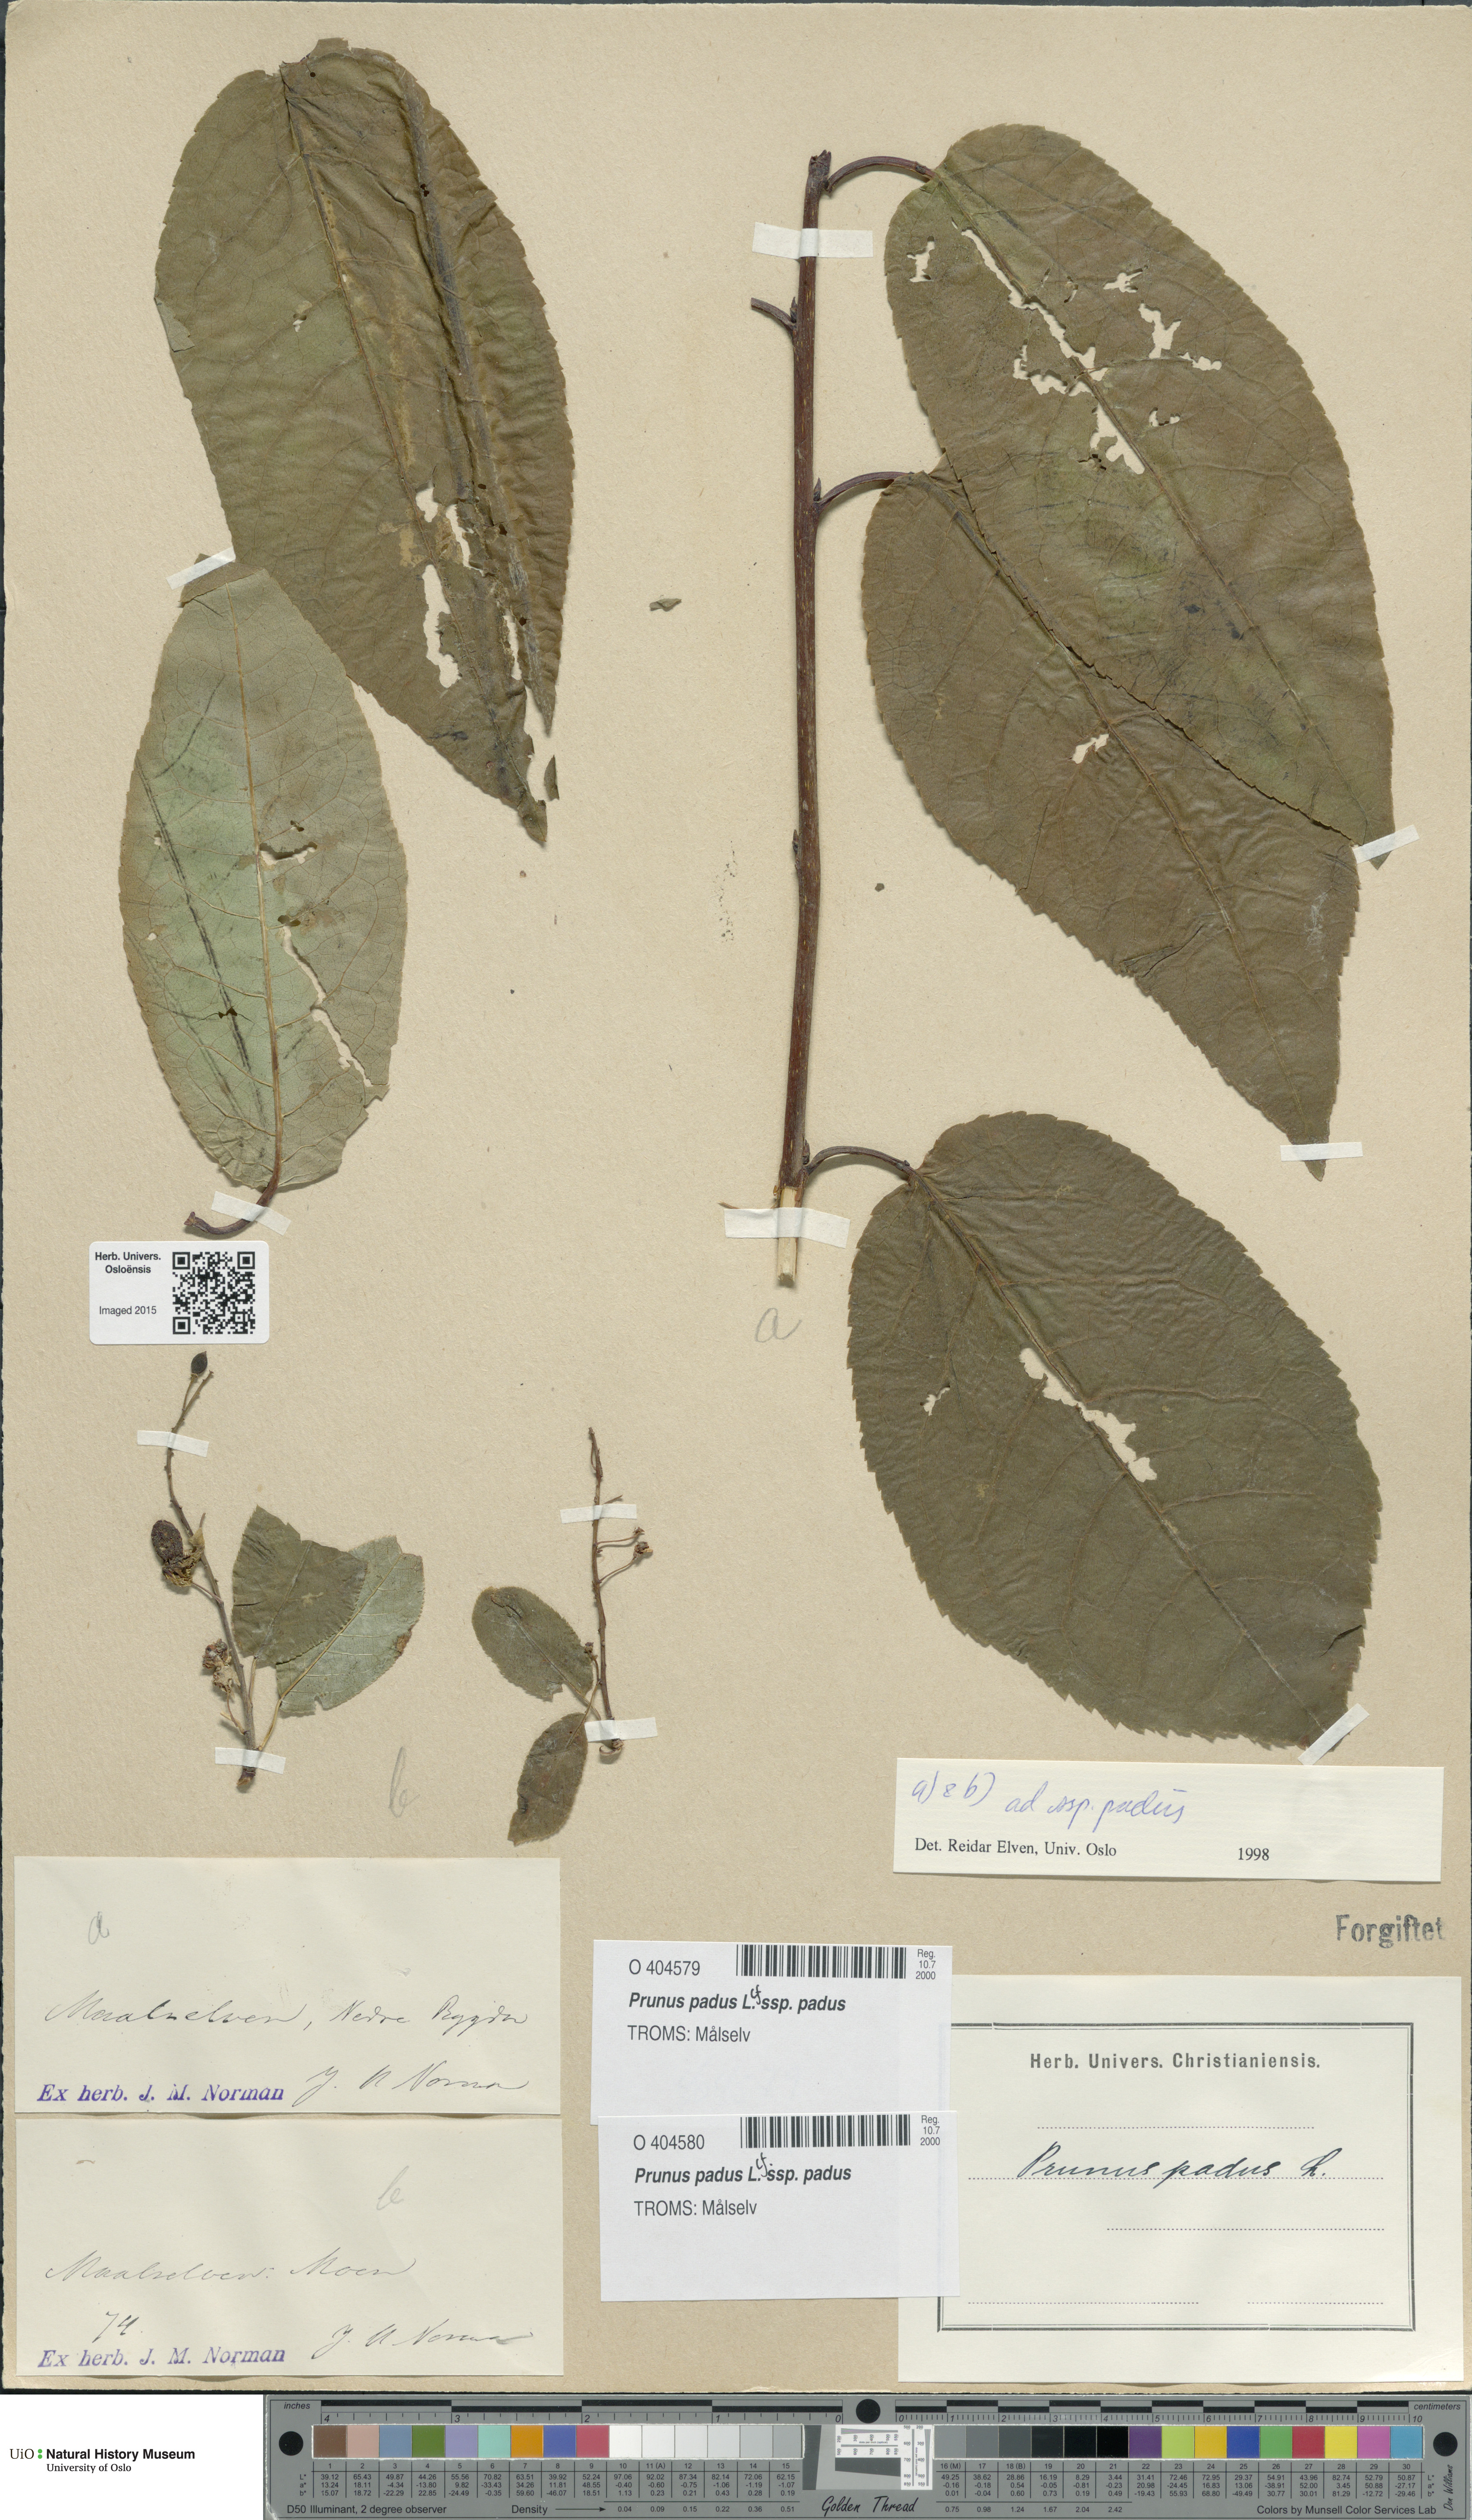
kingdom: Plantae
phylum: Tracheophyta
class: Magnoliopsida
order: Rosales
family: Rosaceae
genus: Prunus
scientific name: Prunus padus
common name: Bird cherry
